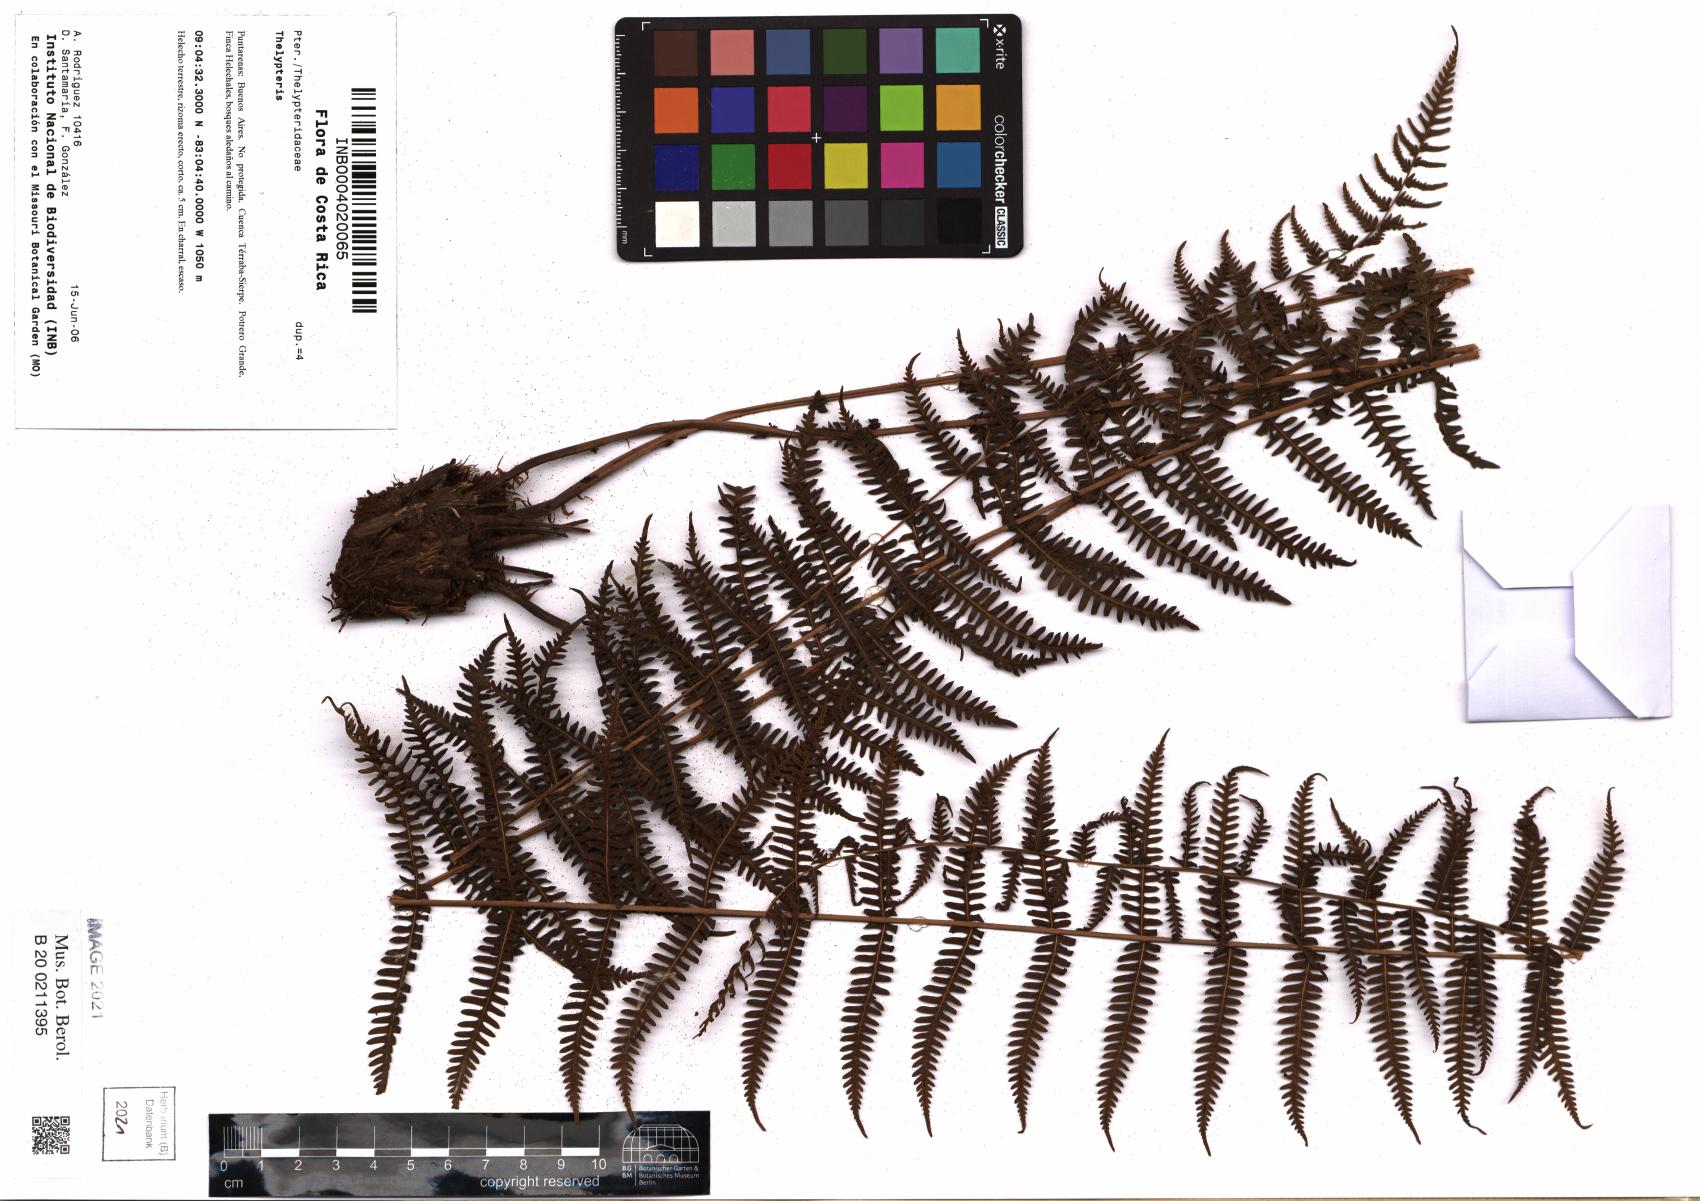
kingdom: Plantae
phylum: Tracheophyta
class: Polypodiopsida
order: Polypodiales
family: Thelypteridaceae
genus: Thelypteris
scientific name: Thelypteris
